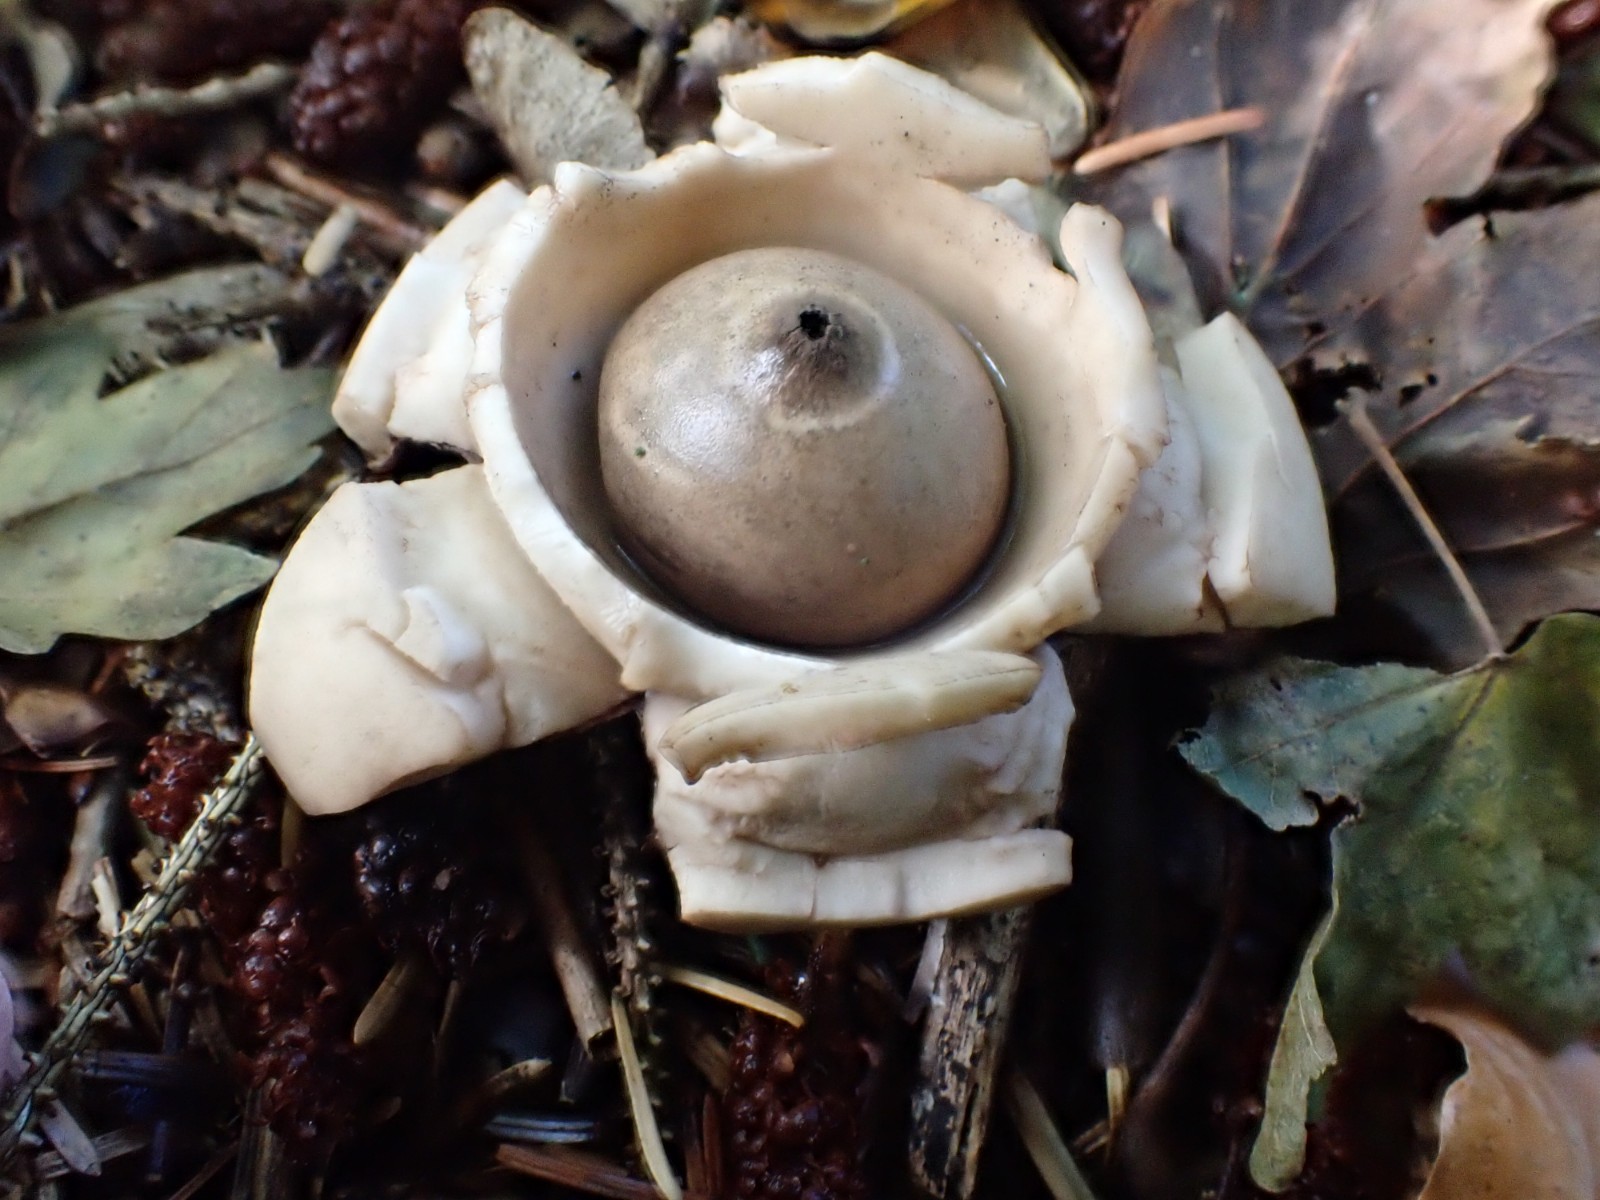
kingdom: Fungi
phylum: Basidiomycota
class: Agaricomycetes
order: Geastrales
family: Geastraceae
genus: Geastrum
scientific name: Geastrum michelianum
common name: kødet stjernebold
